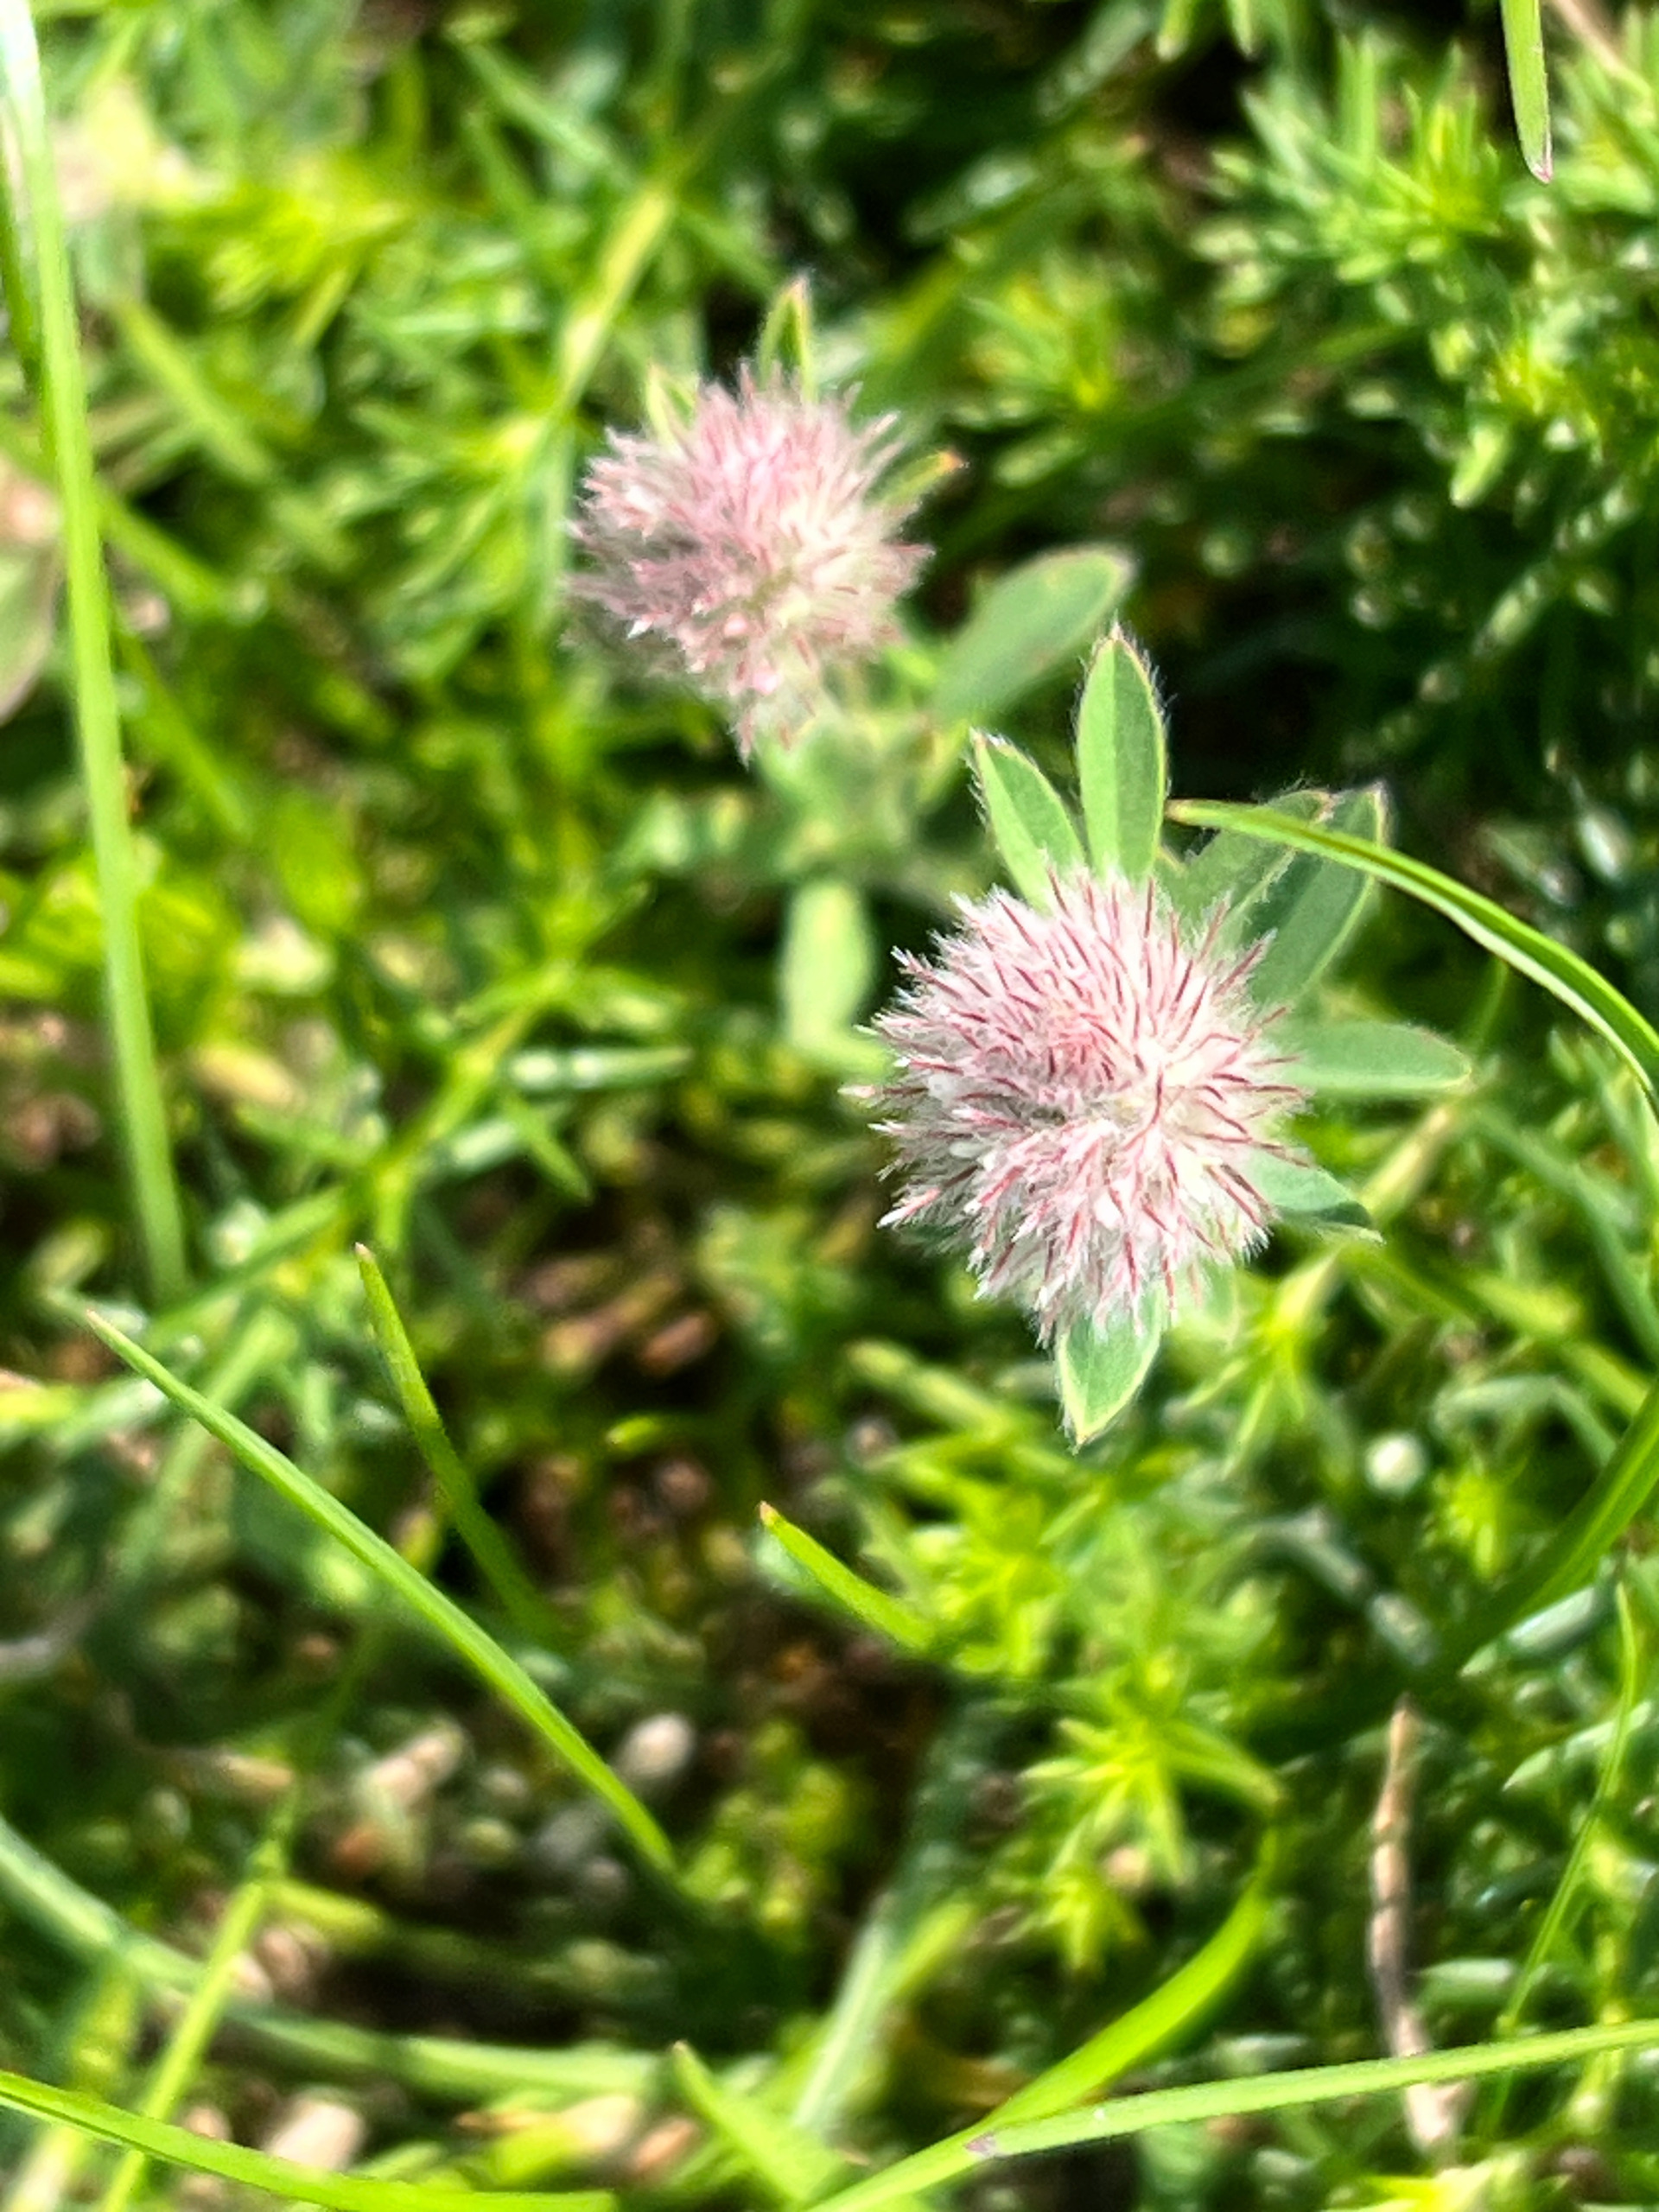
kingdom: Plantae
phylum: Tracheophyta
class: Magnoliopsida
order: Fabales
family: Fabaceae
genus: Trifolium
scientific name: Trifolium arvense
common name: Hare-kløver
